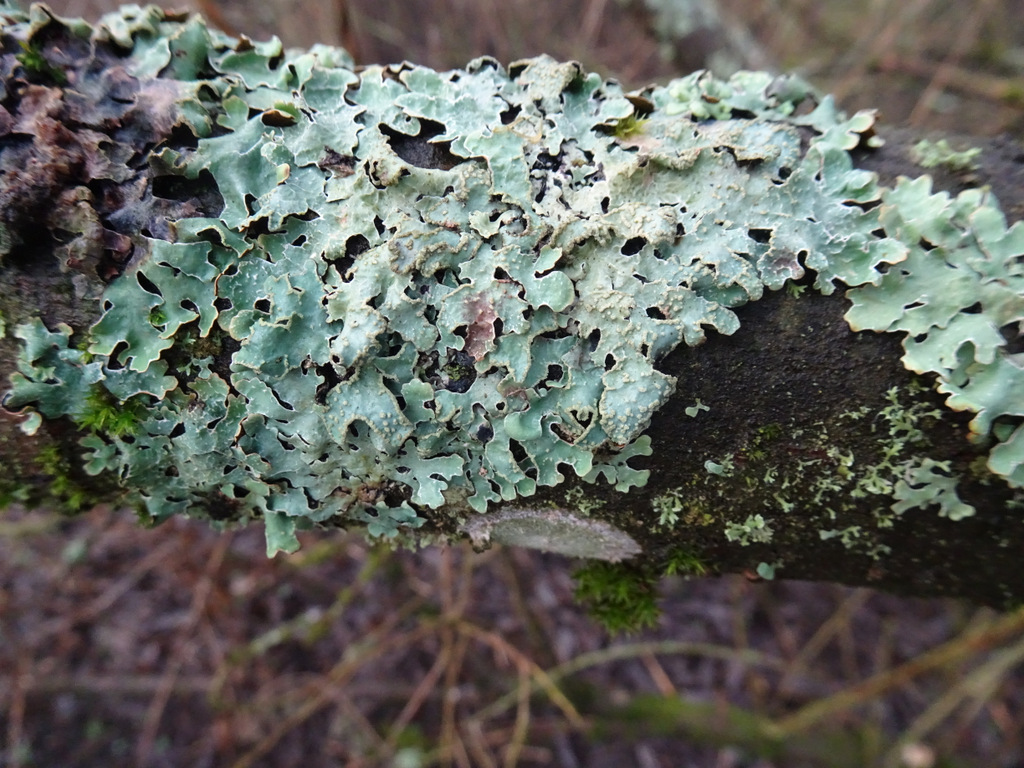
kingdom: Fungi
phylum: Ascomycota
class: Lecanoromycetes
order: Lecanorales
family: Parmeliaceae
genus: Parmelia
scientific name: Parmelia sulcata
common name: rynket skållav
